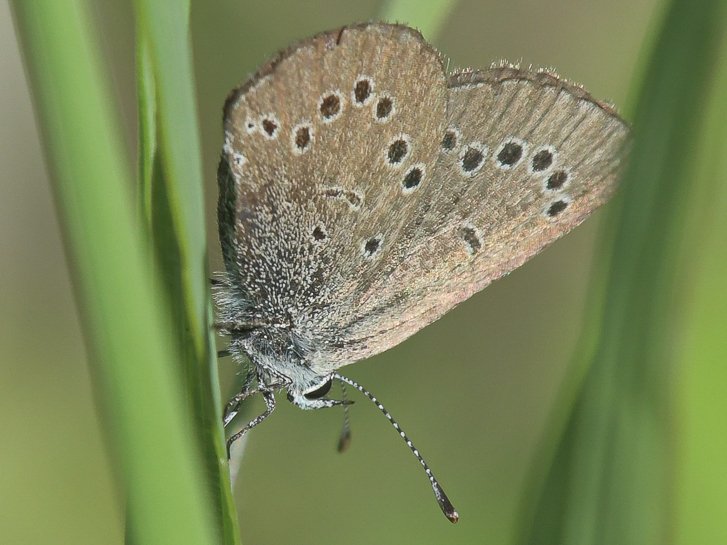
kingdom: Animalia
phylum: Arthropoda
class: Insecta
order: Lepidoptera
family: Lycaenidae
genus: Glaucopsyche
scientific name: Glaucopsyche lygdamus
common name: Silvery Blue
